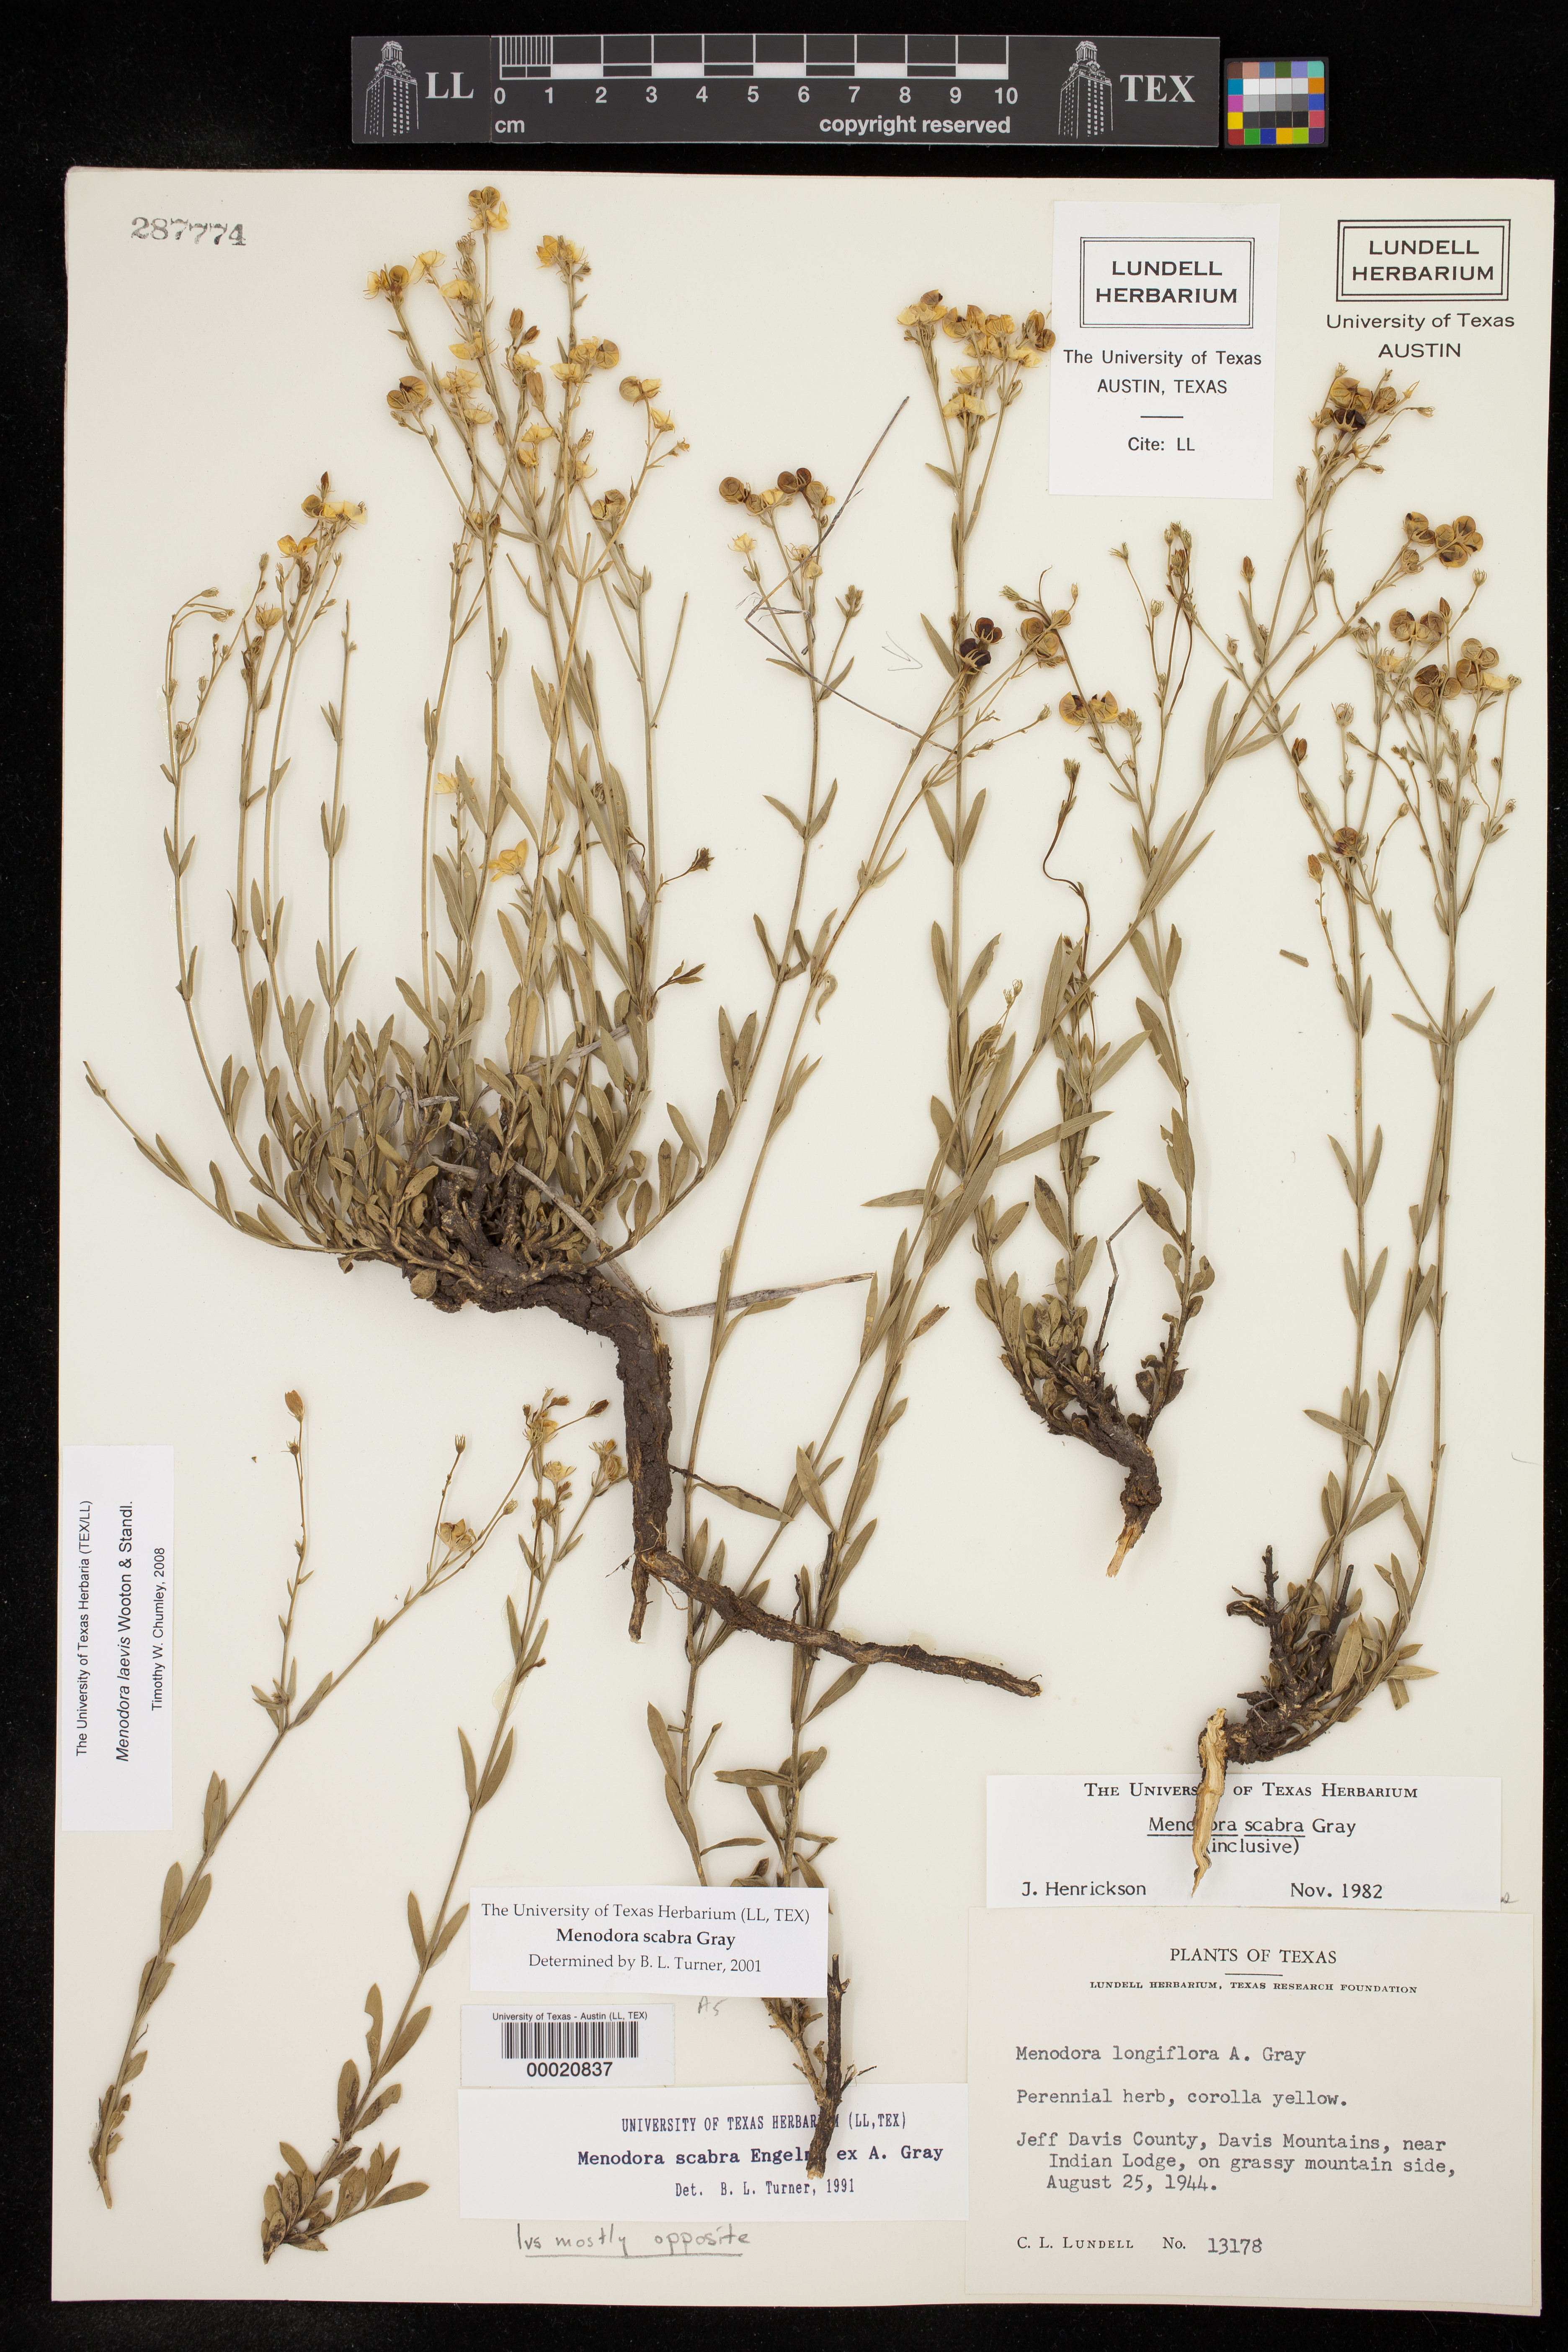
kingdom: Plantae
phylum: Tracheophyta
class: Magnoliopsida
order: Lamiales
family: Oleaceae
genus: Menodora
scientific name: Menodora scabra
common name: Rough menodora
